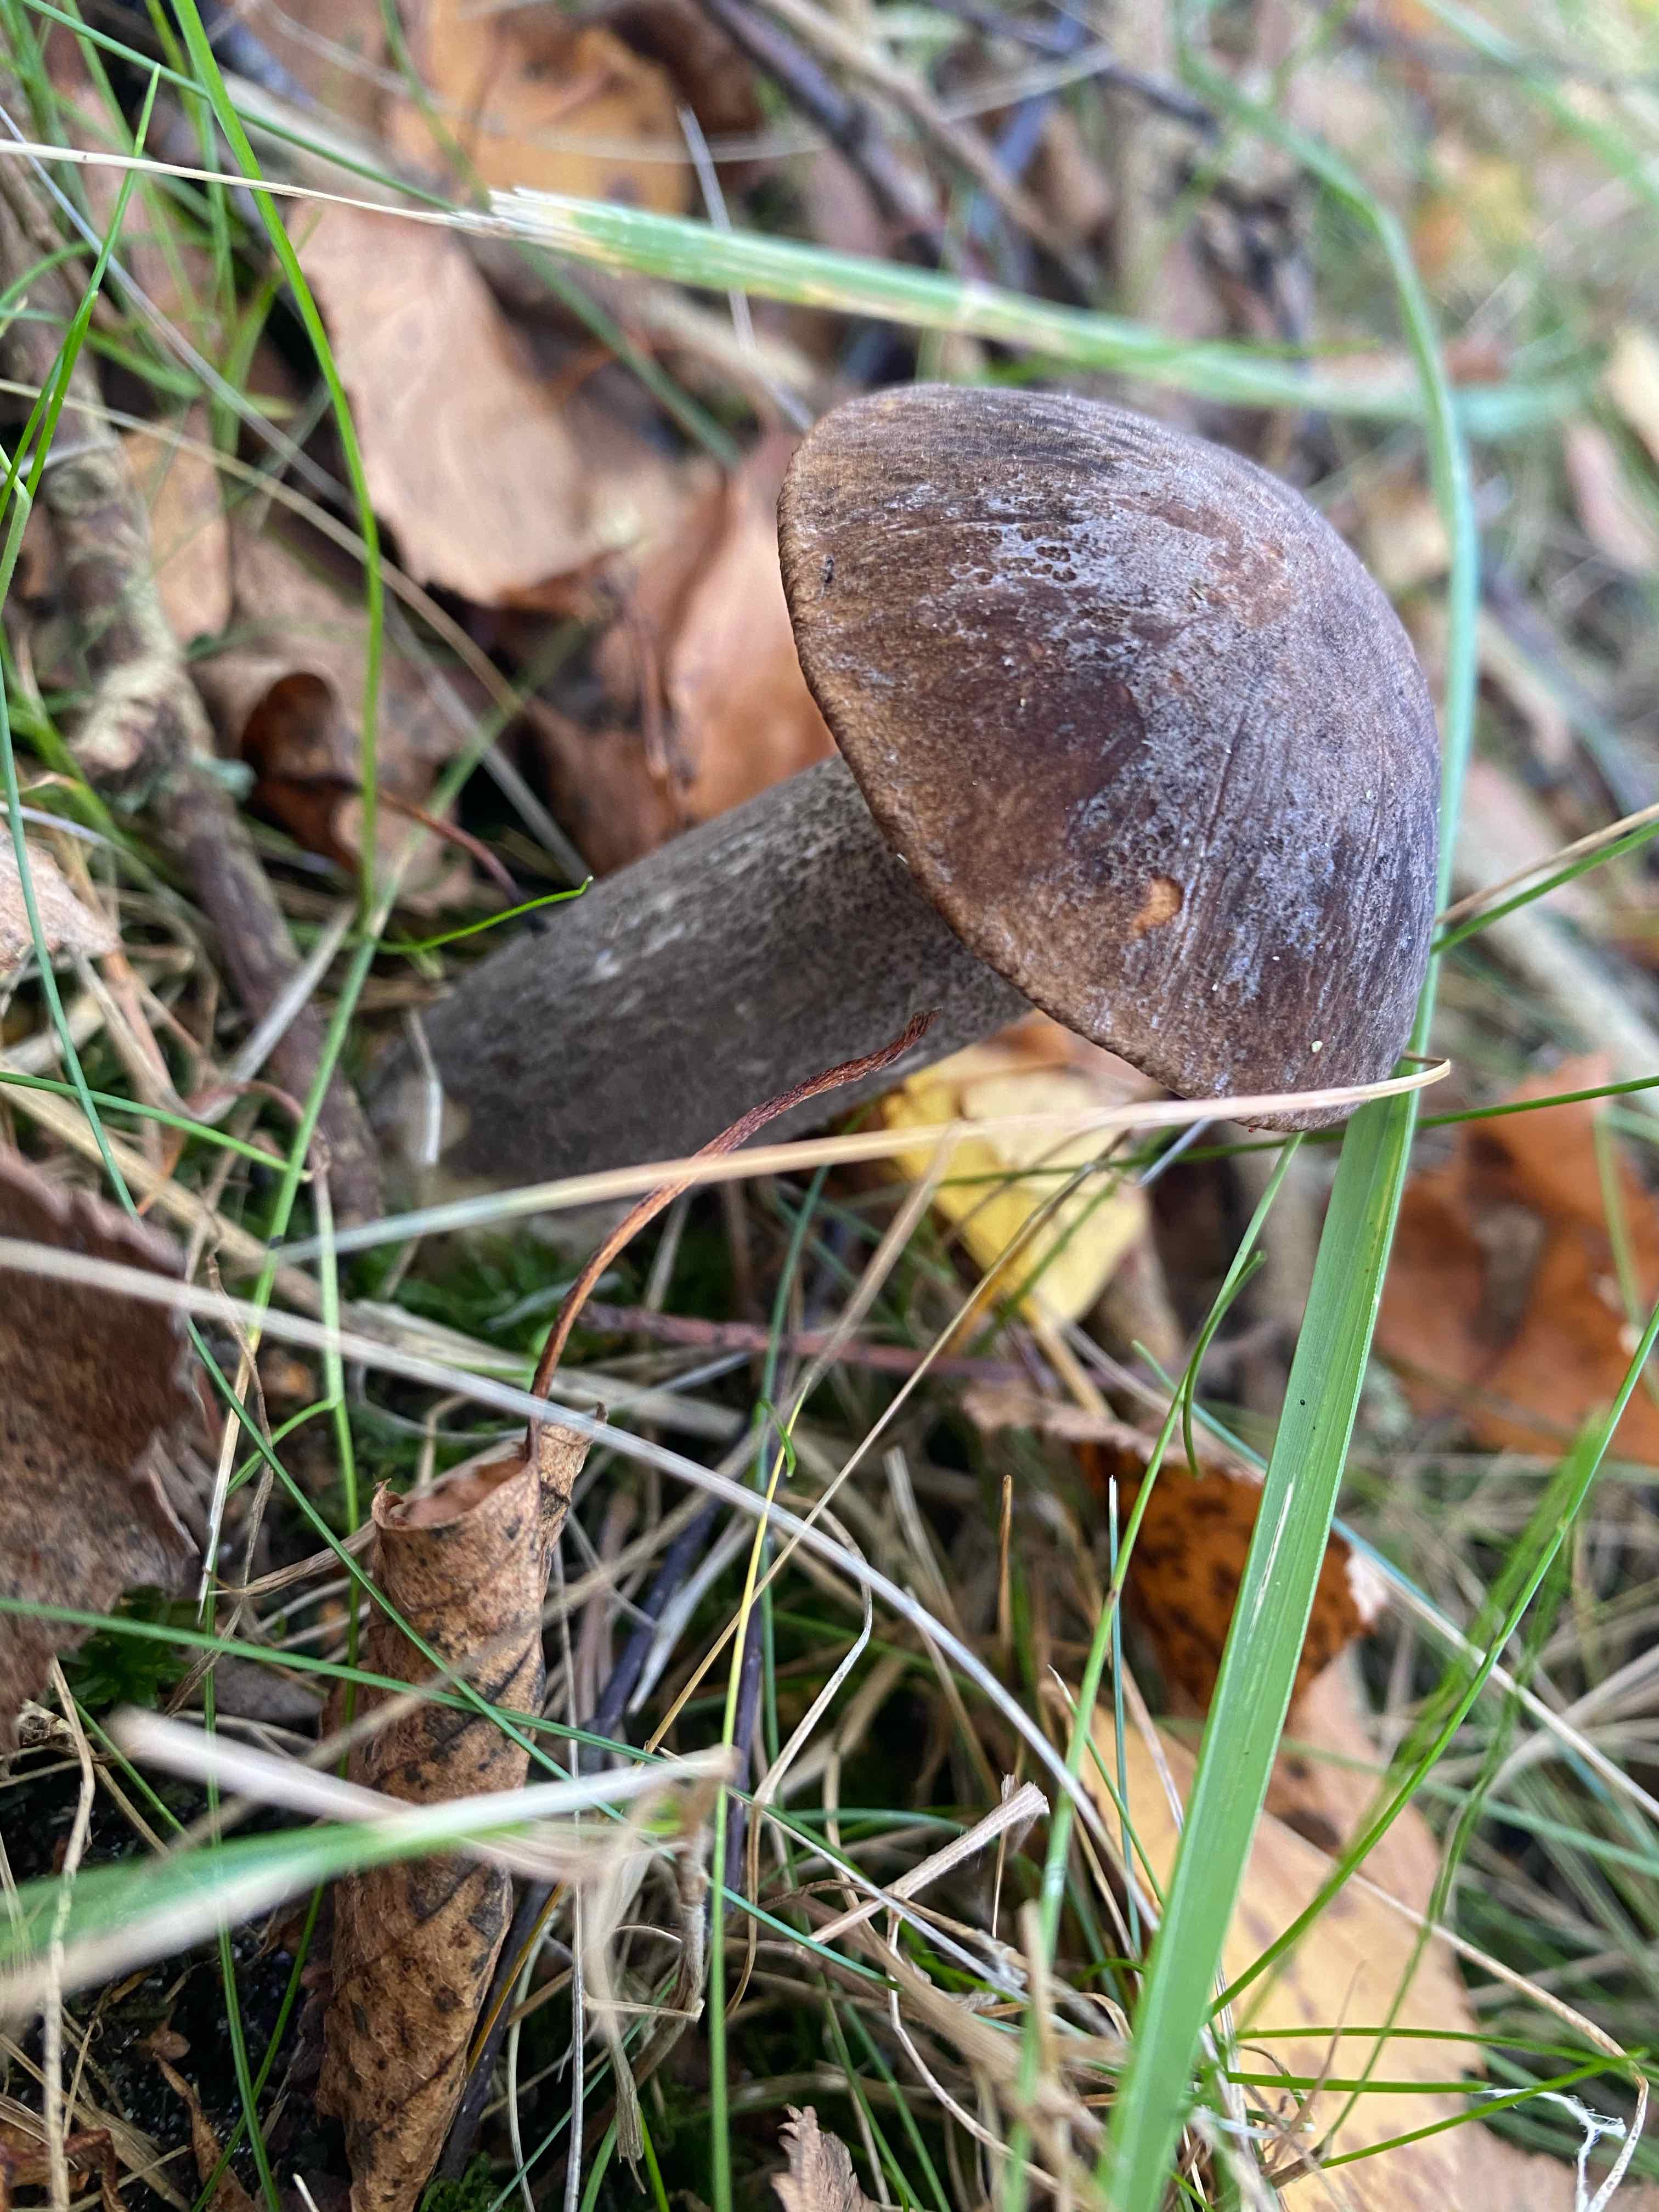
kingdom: Fungi
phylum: Basidiomycota
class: Agaricomycetes
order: Boletales
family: Boletaceae
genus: Leccinum
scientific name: Leccinum melaneum
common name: mørk skælrørhat
